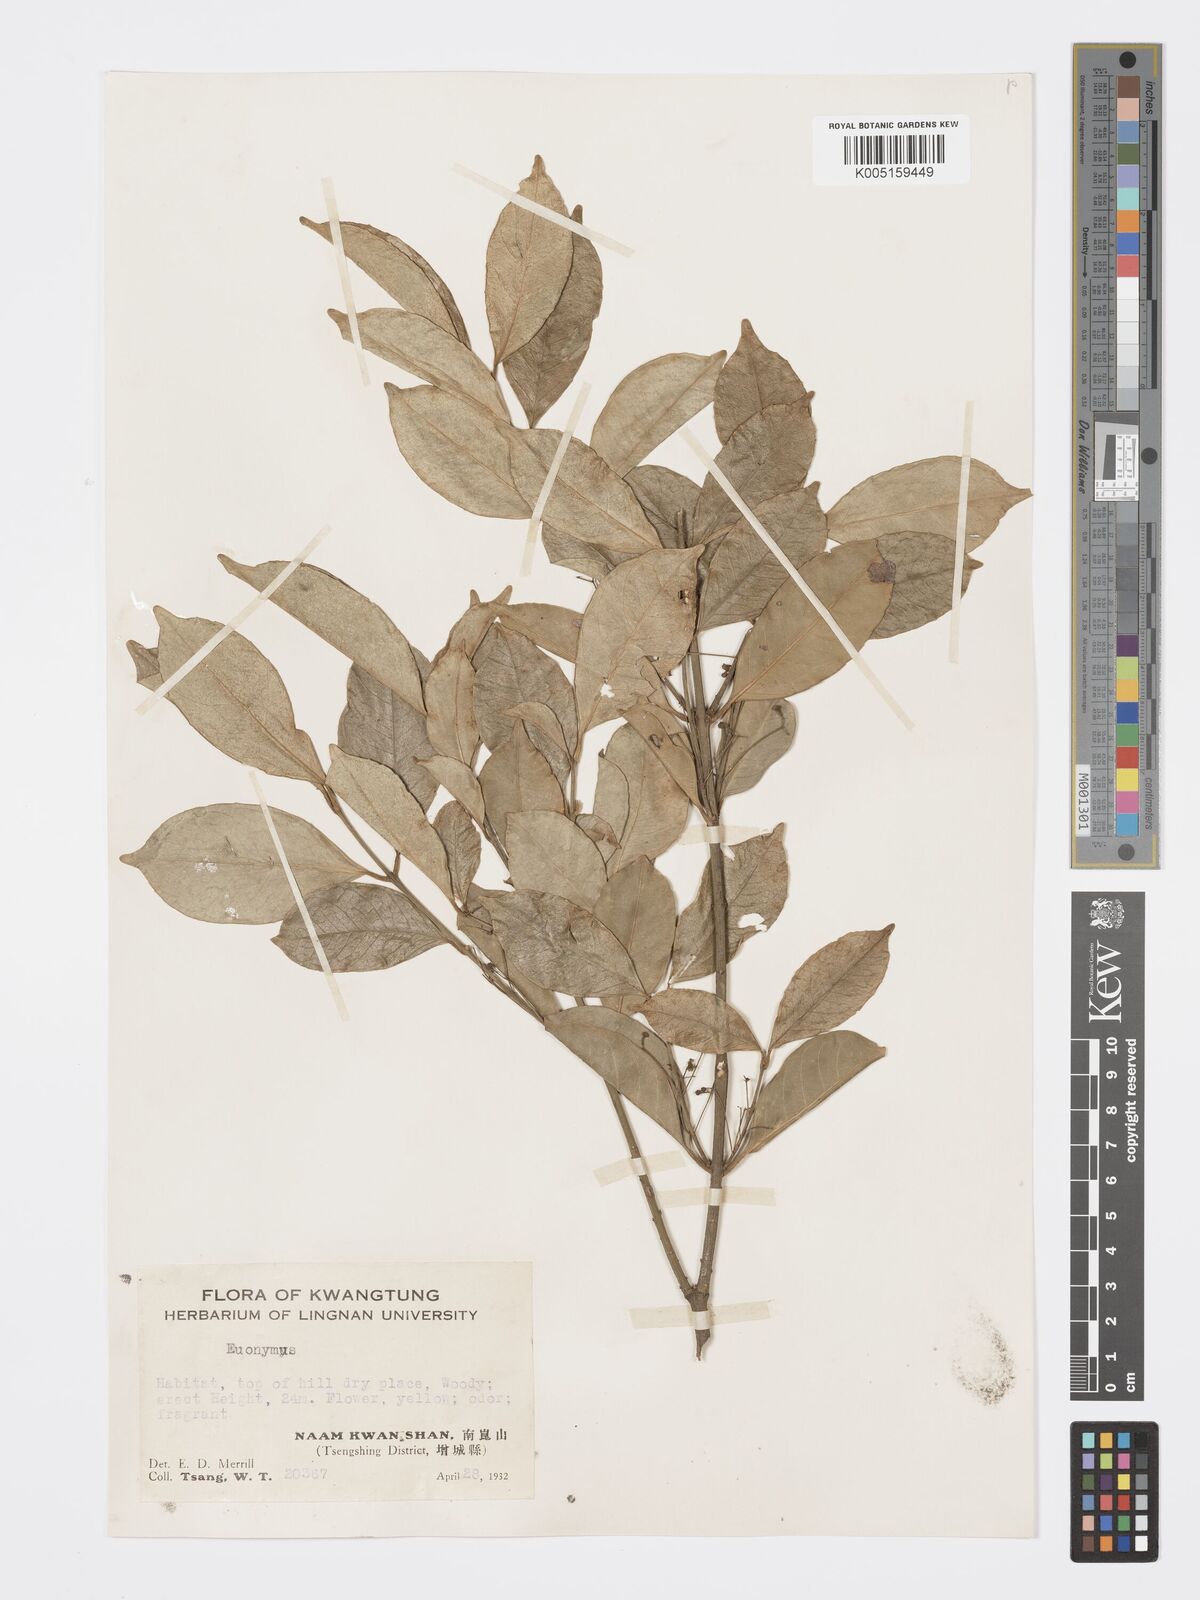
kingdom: Plantae
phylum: Tracheophyta
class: Magnoliopsida
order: Celastrales
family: Celastraceae
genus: Euonymus
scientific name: Euonymus nitidus
